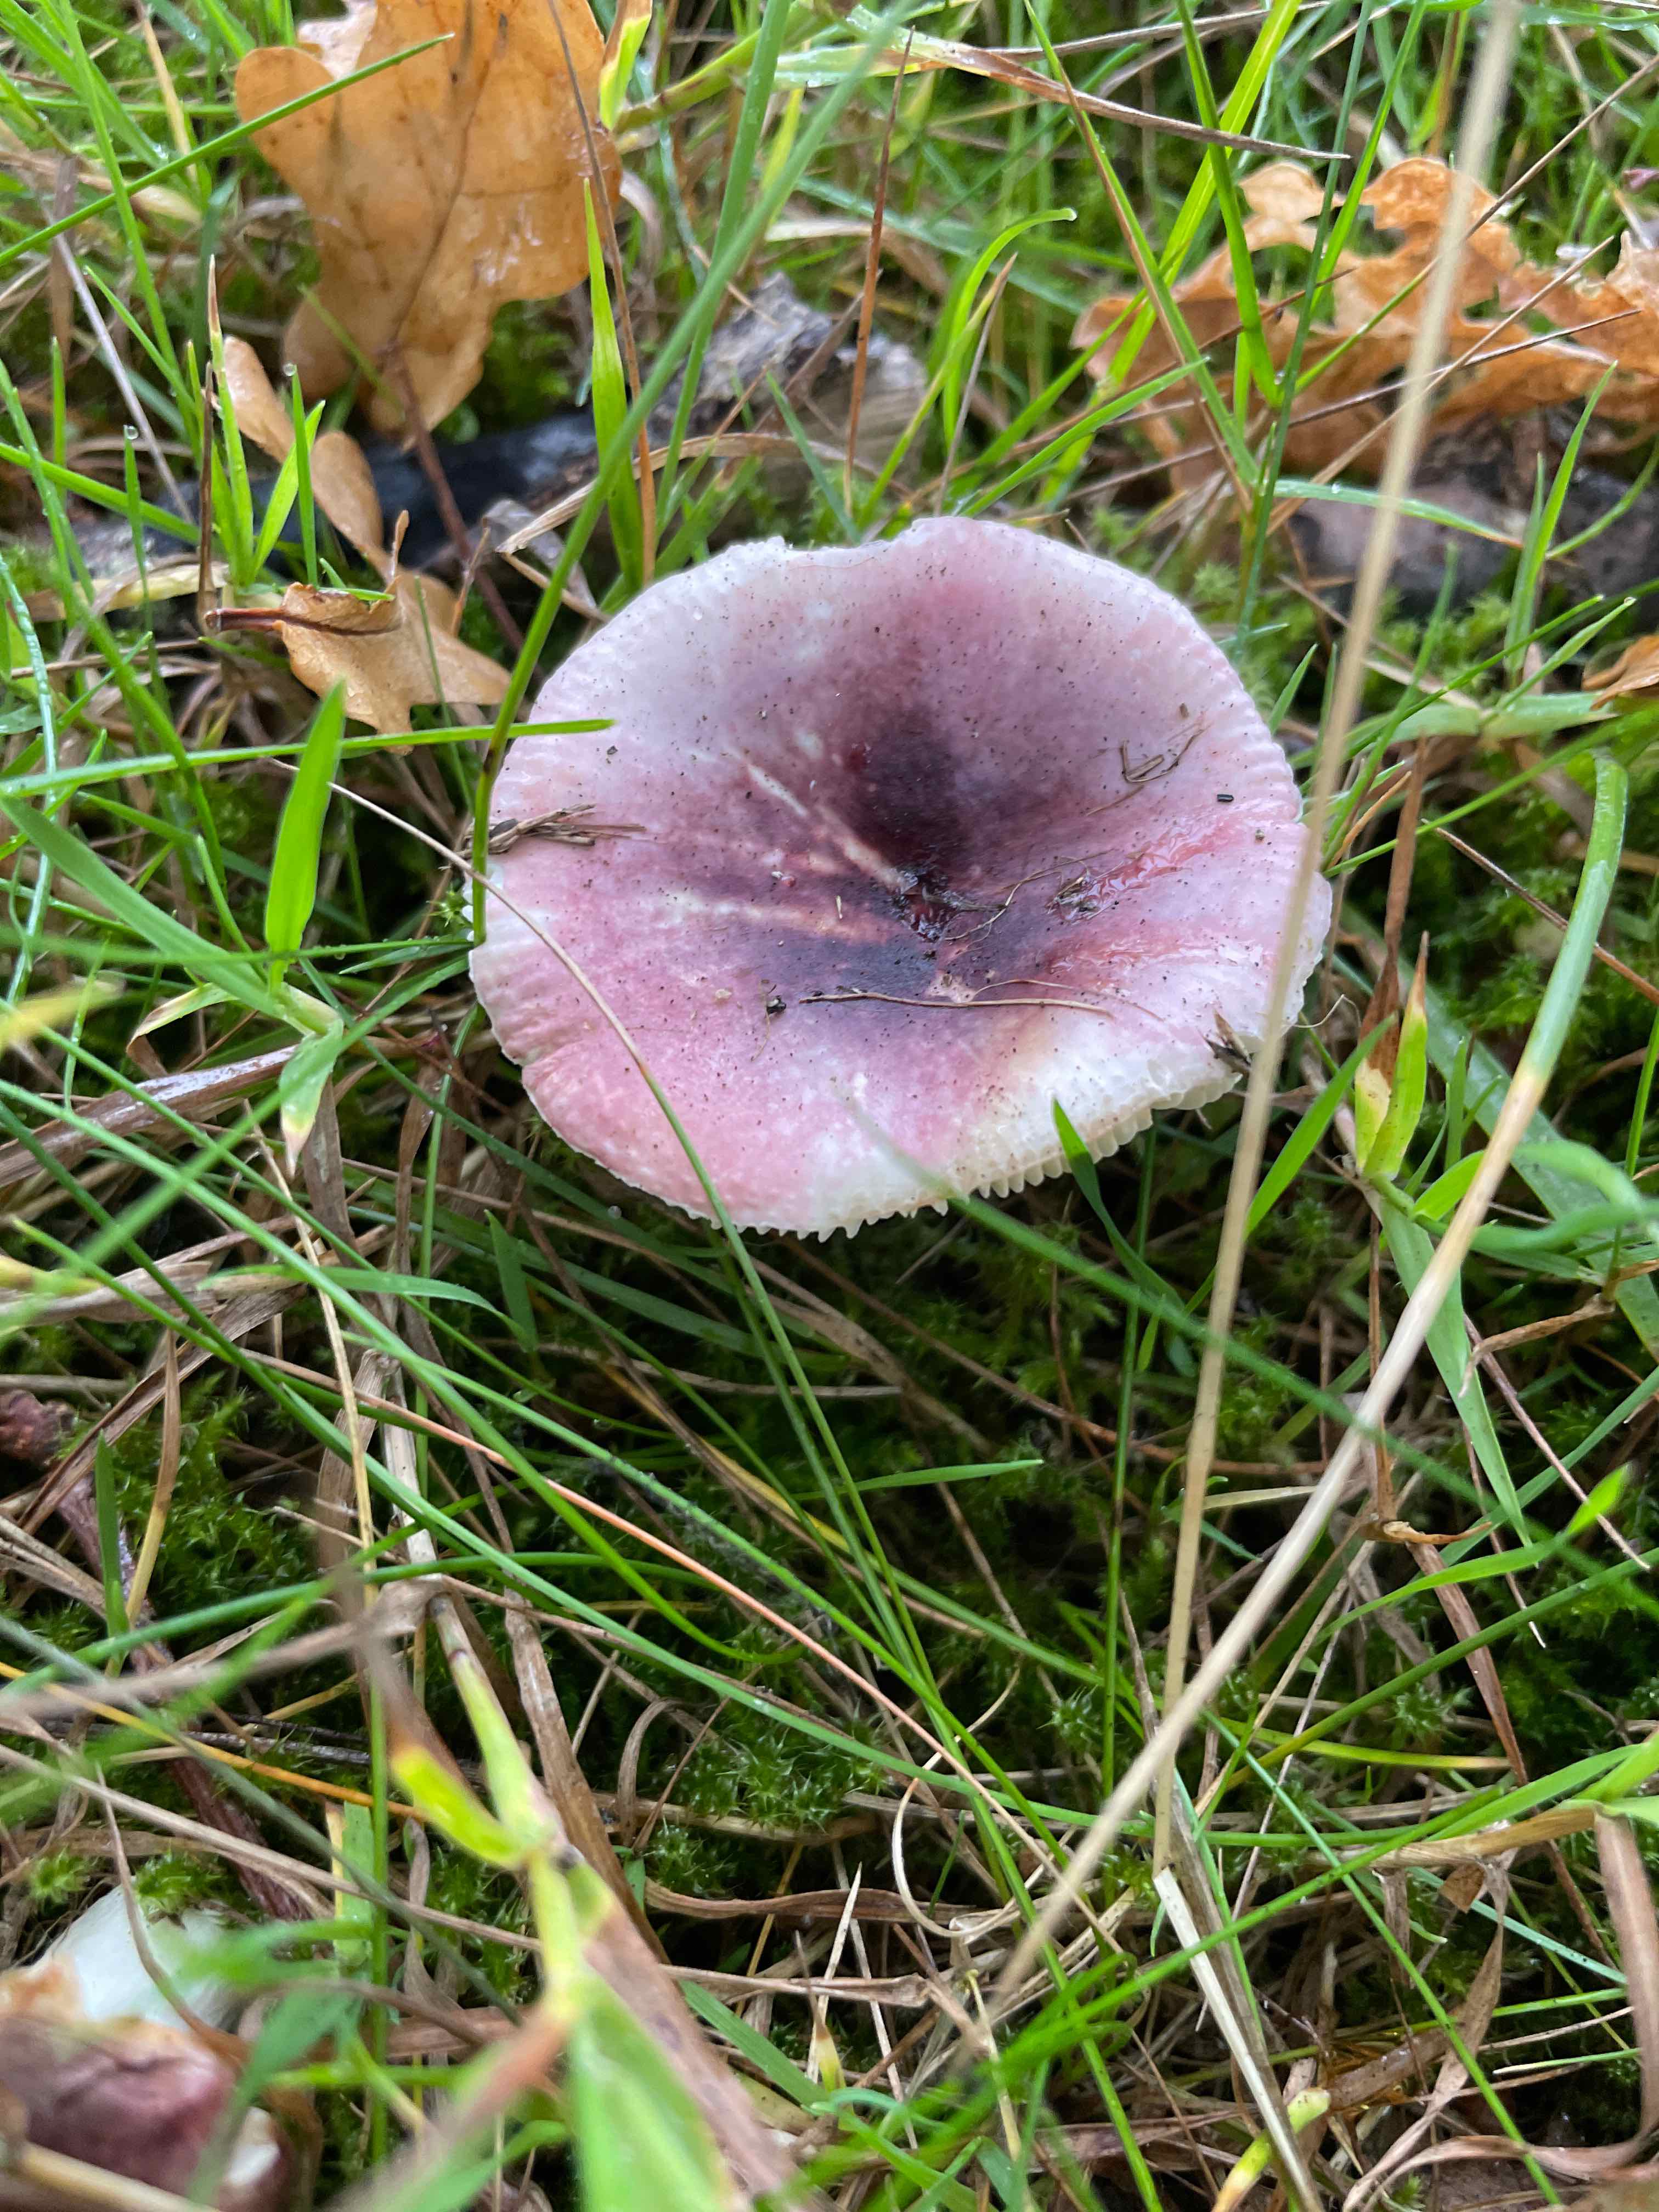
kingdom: Fungi
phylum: Basidiomycota
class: Agaricomycetes
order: Russulales
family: Russulaceae
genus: Russula
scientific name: Russula
